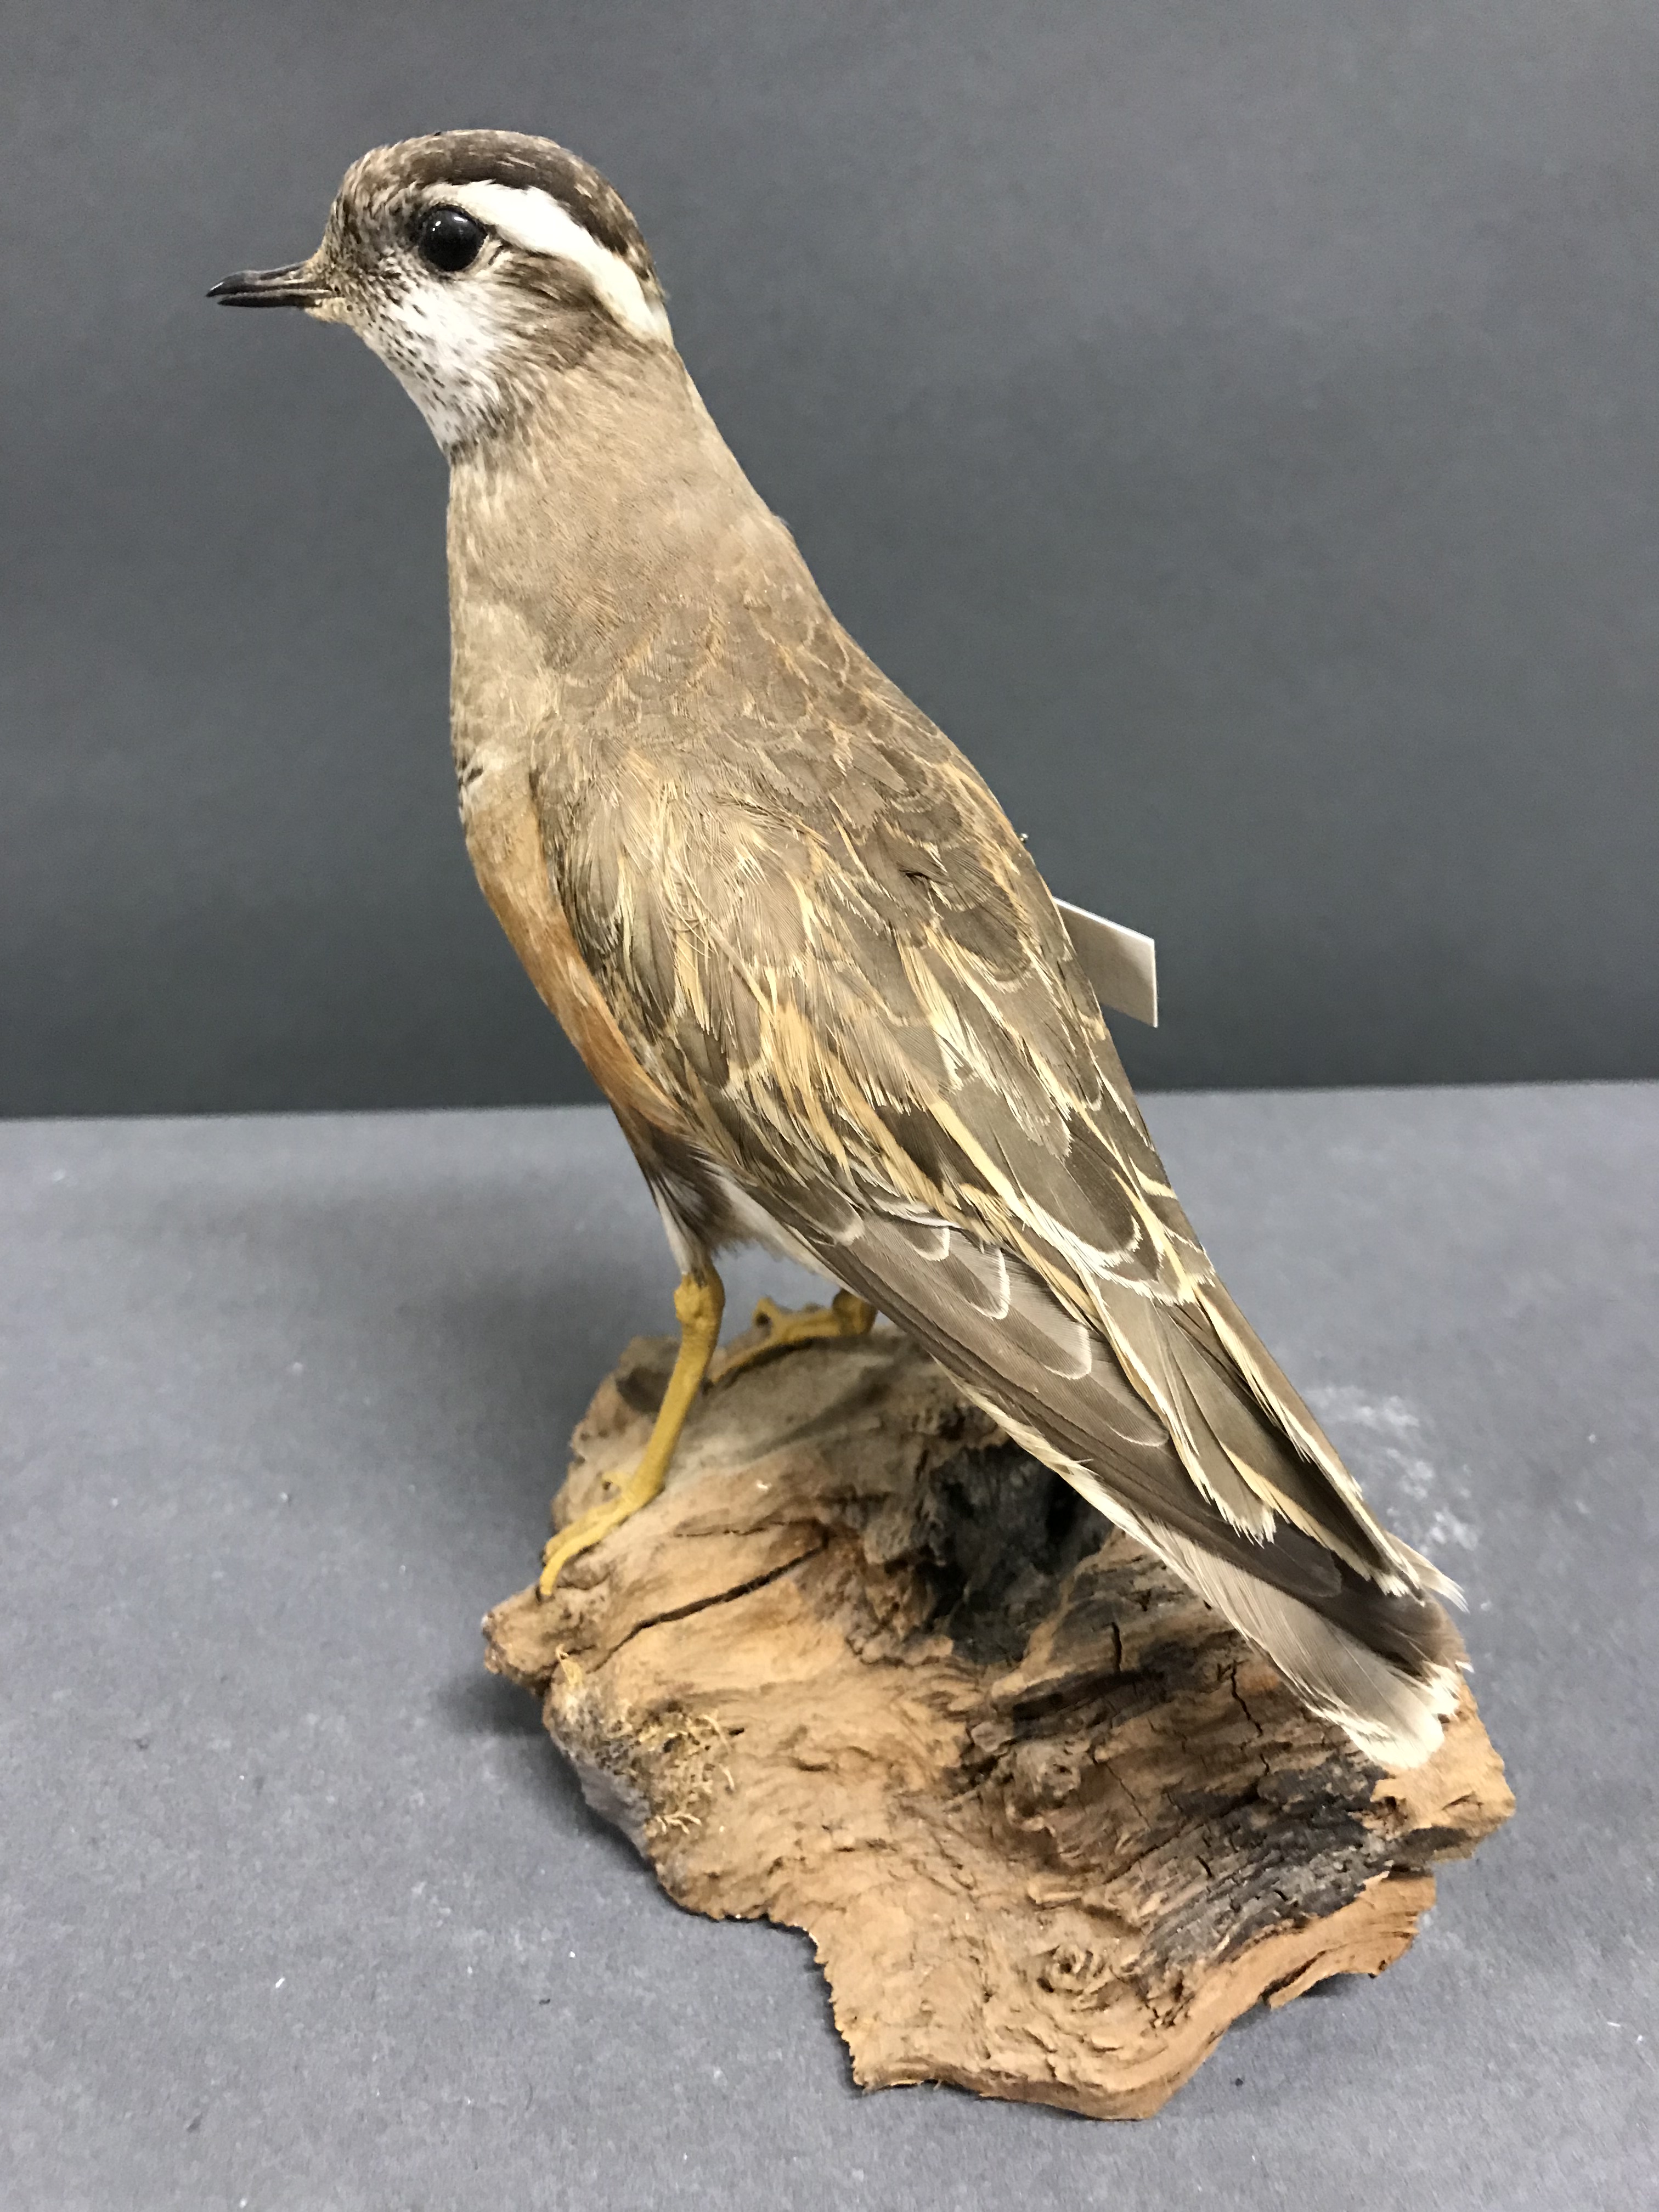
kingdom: Animalia
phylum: Chordata
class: Aves
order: Charadriiformes
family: Charadriidae
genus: Charadrius
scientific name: Charadrius morinellus
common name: Eurasian dotterel
